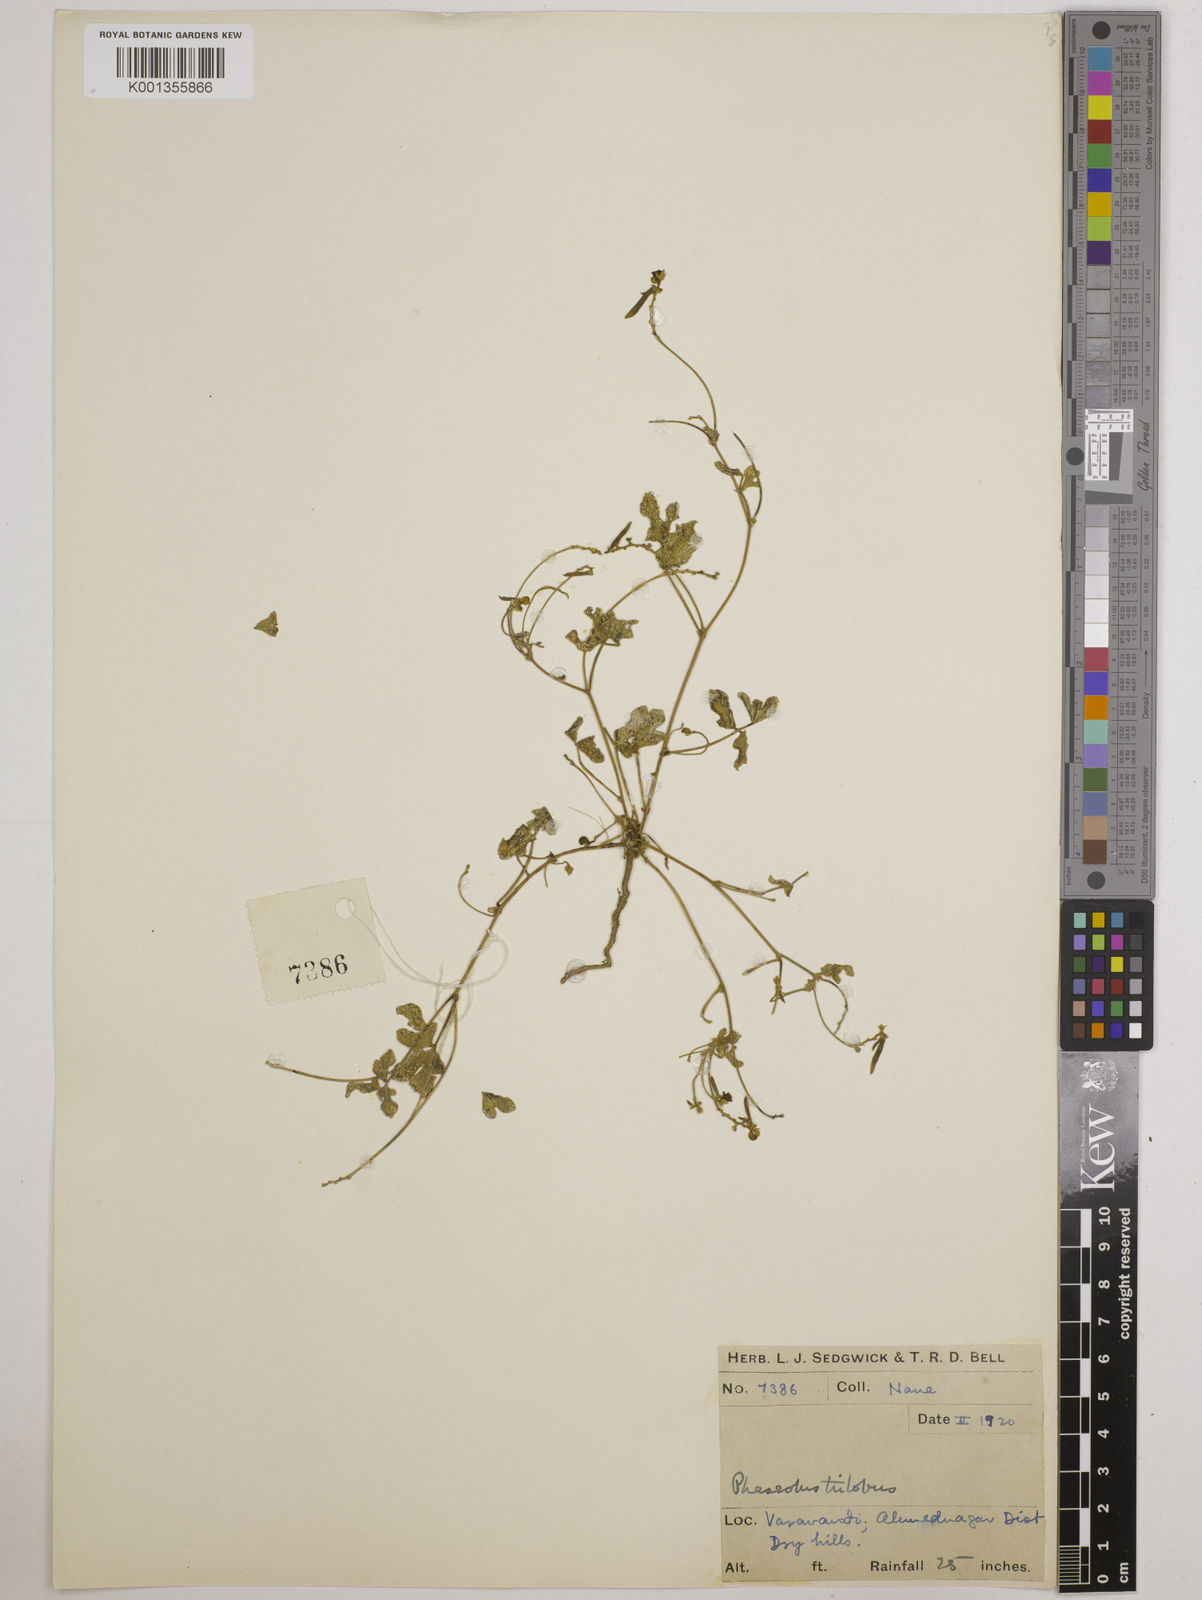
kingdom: Plantae
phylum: Tracheophyta
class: Magnoliopsida
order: Fabales
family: Fabaceae
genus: Vigna
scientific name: Vigna trilobata
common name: Jungli-bean
